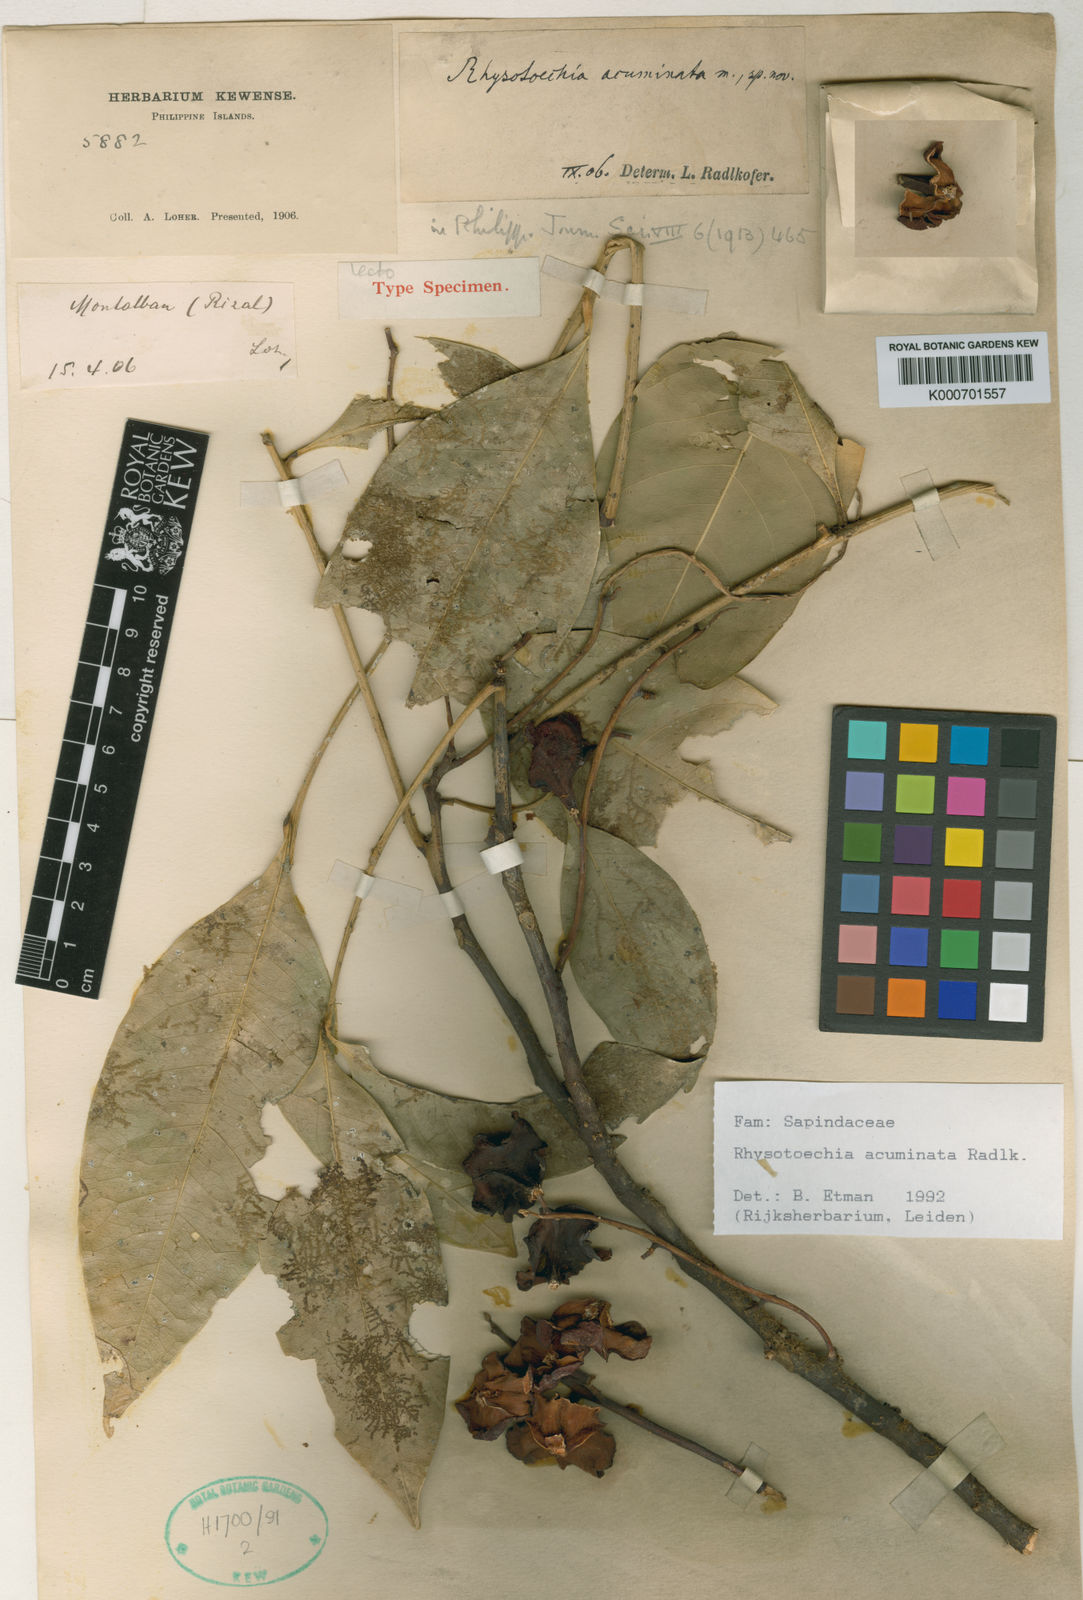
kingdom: Plantae
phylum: Tracheophyta
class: Magnoliopsida
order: Sapindales
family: Sapindaceae
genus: Rhysotoechia
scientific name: Rhysotoechia ramiflora
